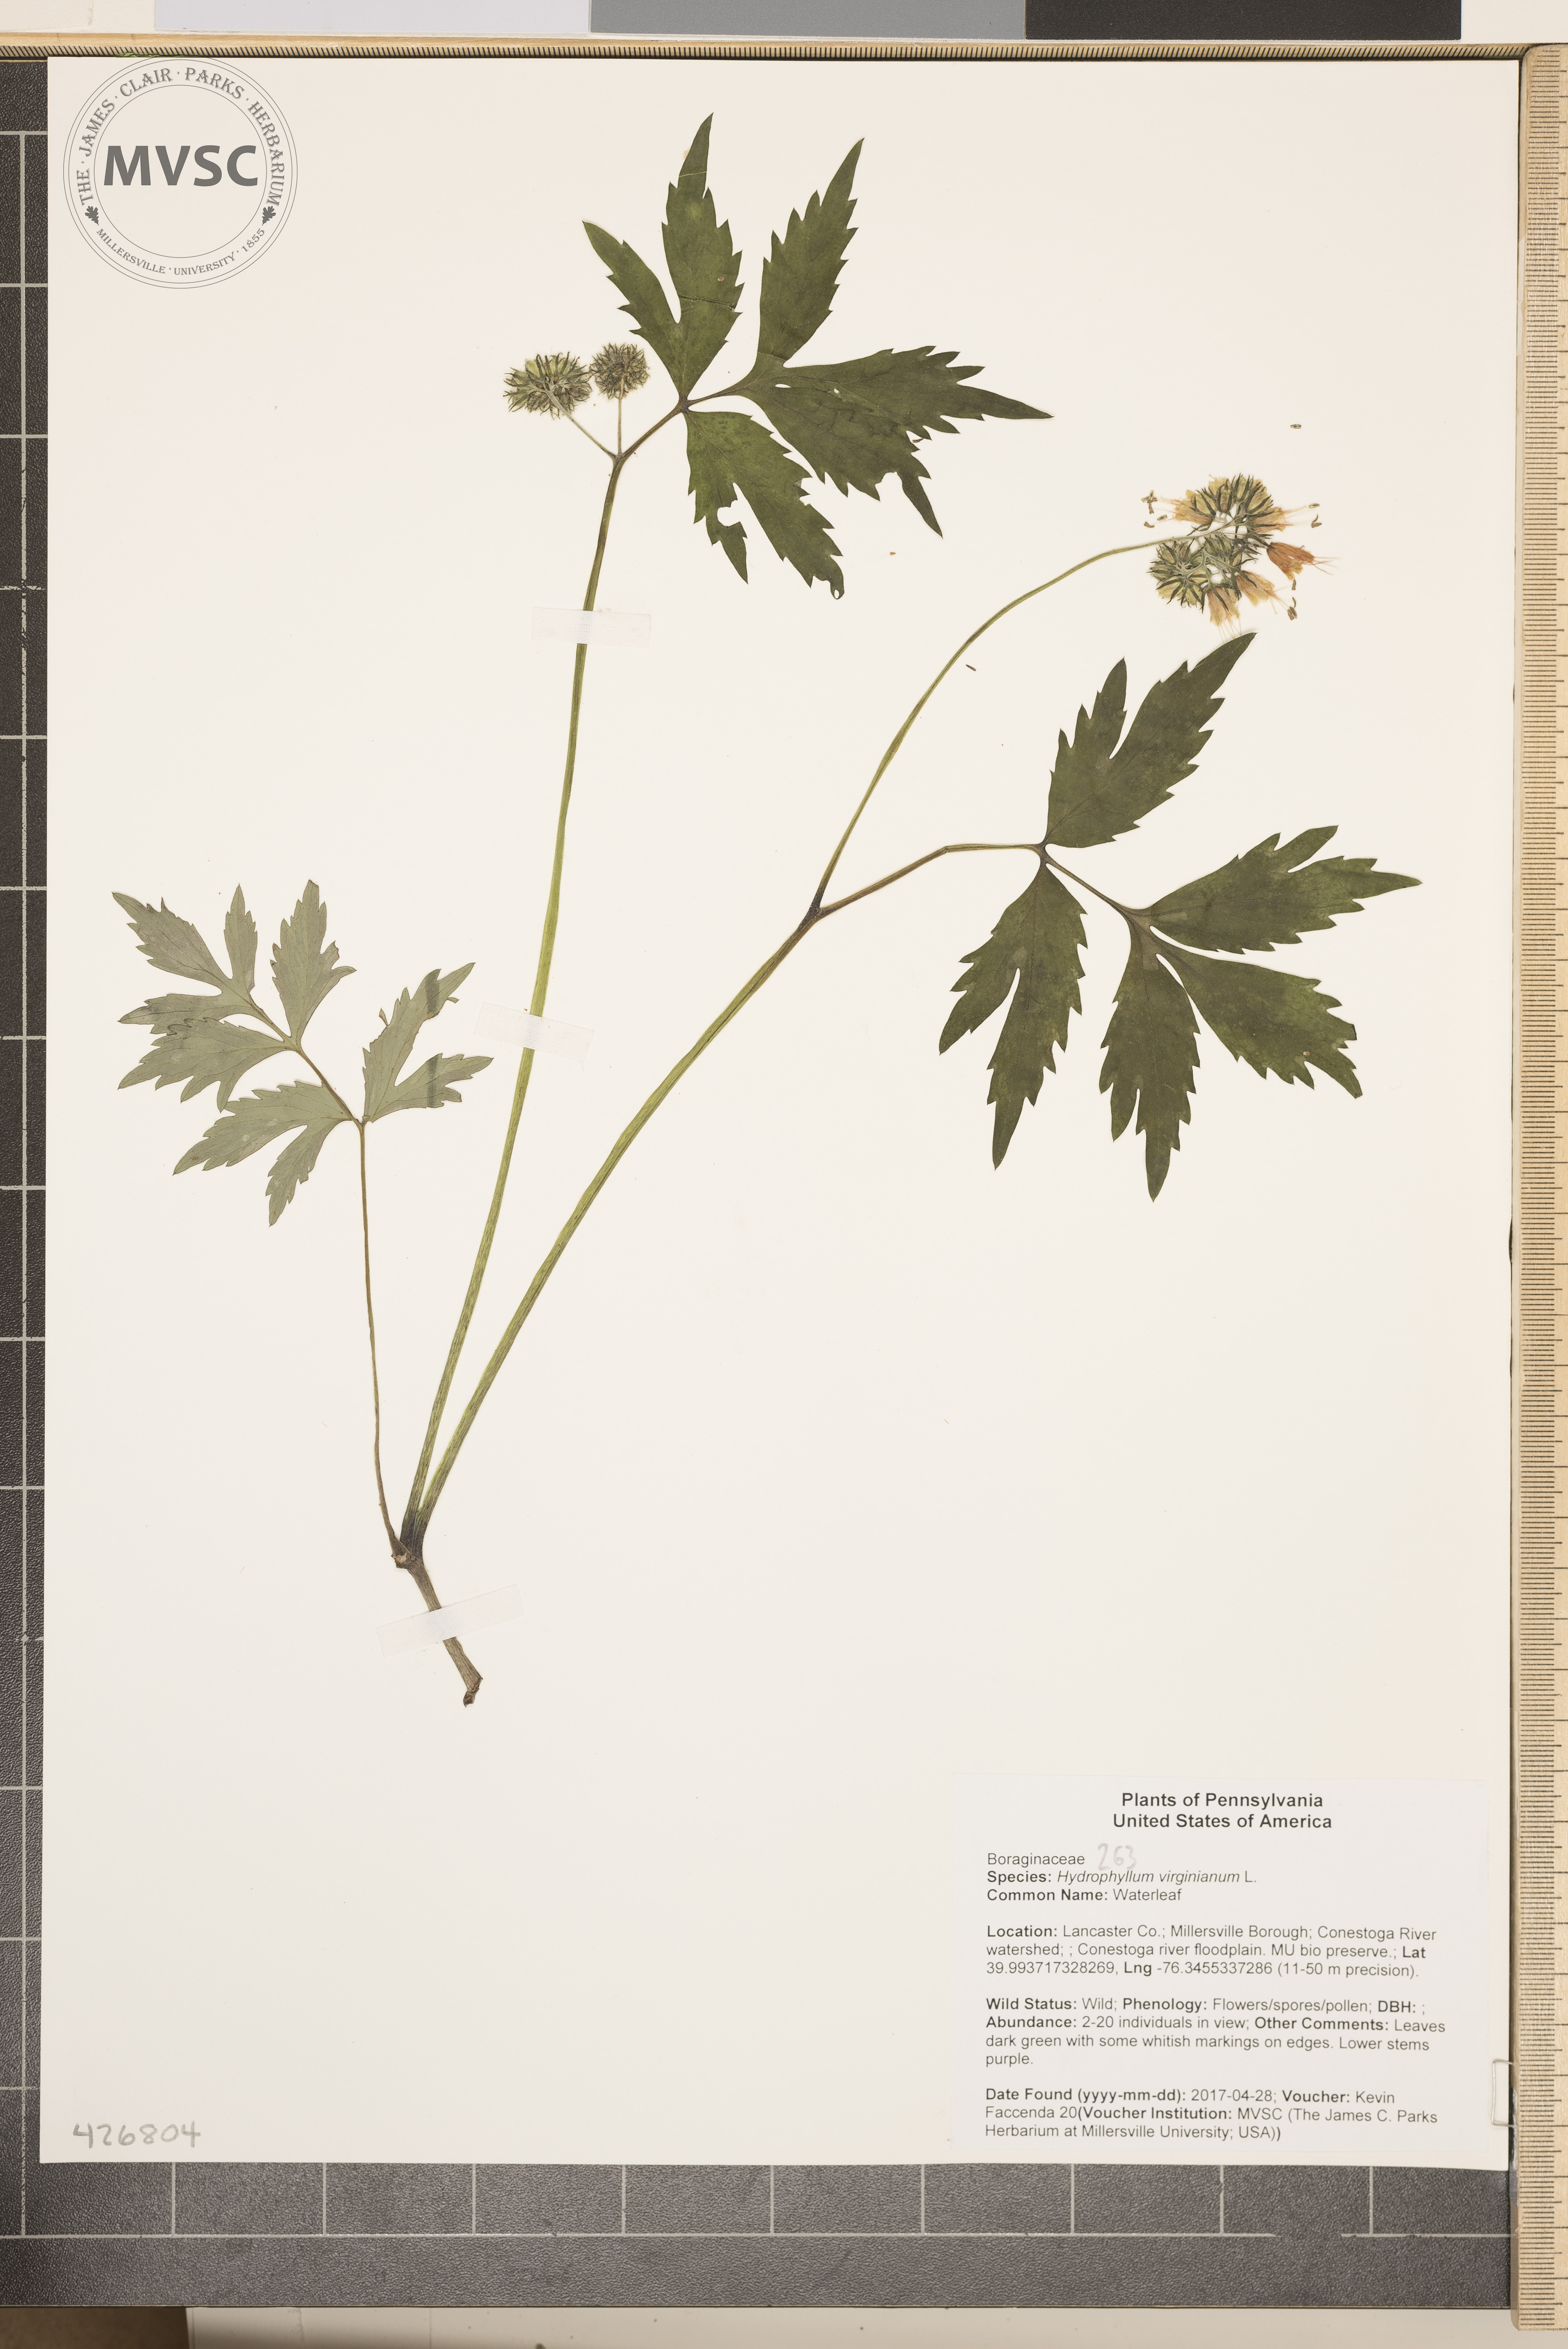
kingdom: Plantae
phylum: Tracheophyta
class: Magnoliopsida
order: Boraginales
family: Hydrophyllaceae
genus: Hydrophyllum
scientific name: Hydrophyllum virginianum
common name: Waterleaf
